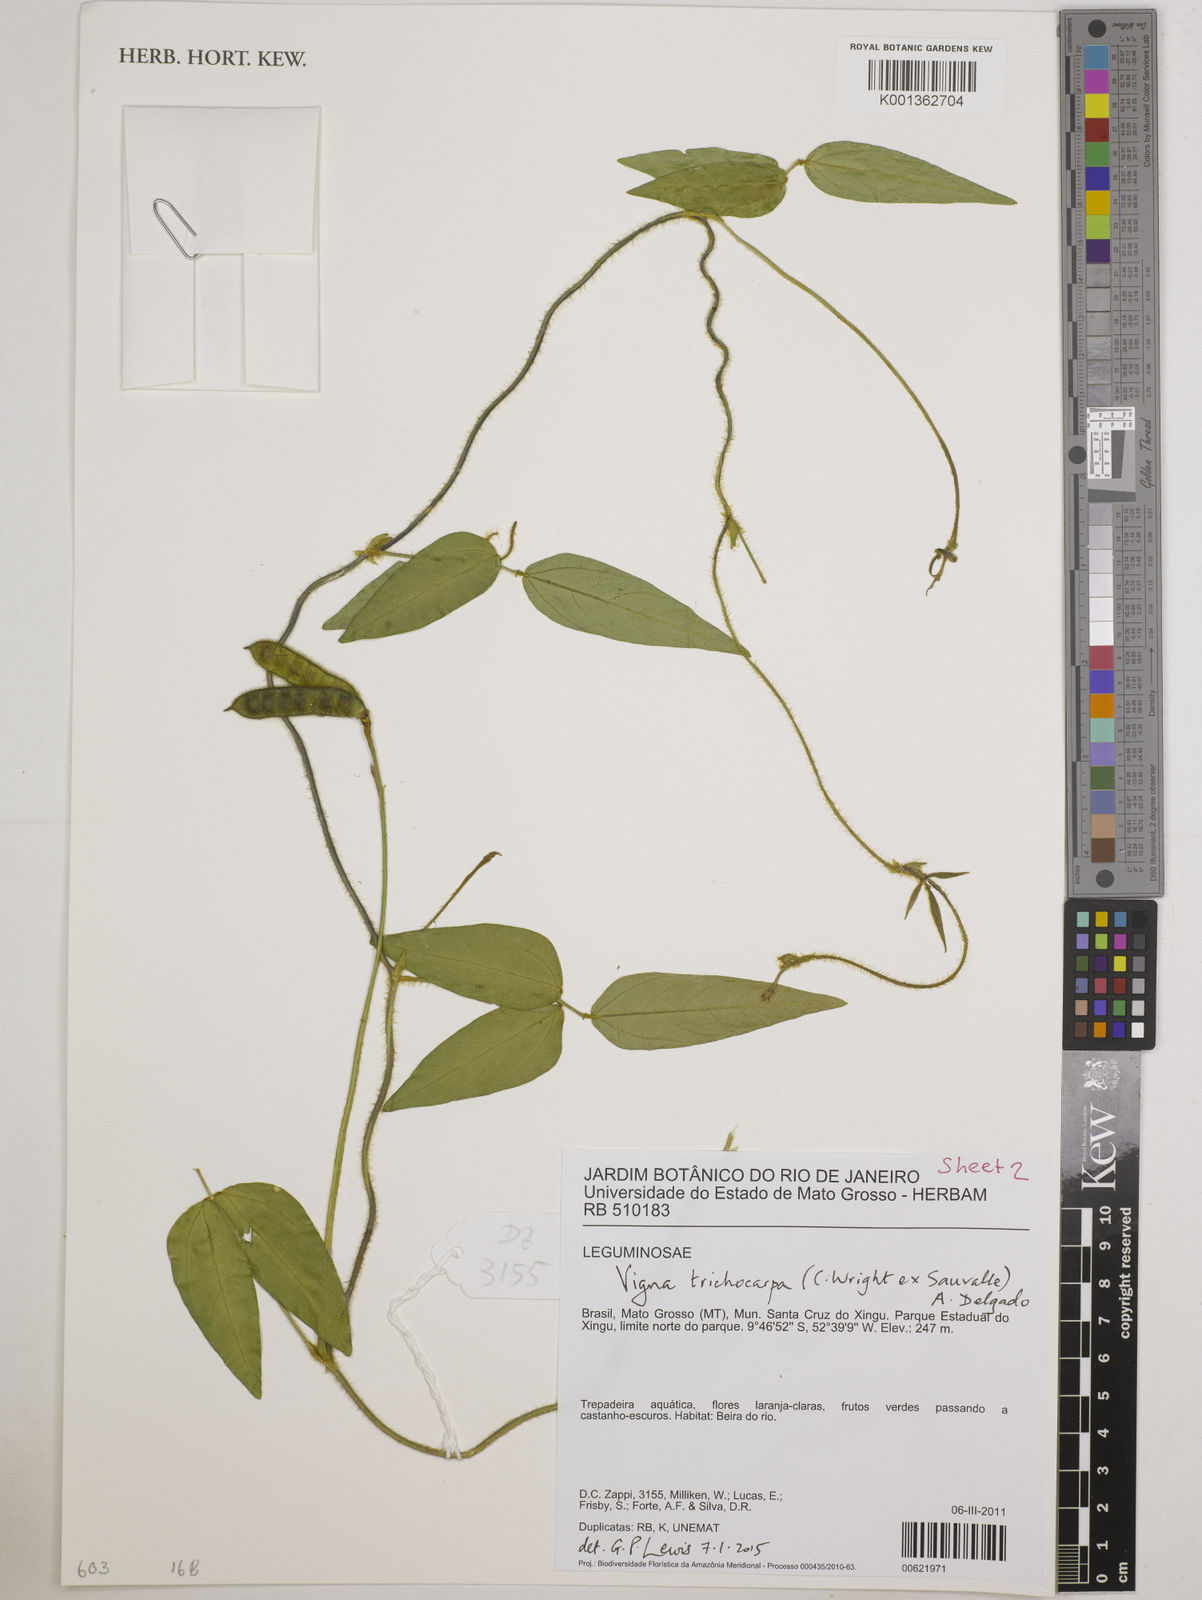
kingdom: Plantae
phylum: Tracheophyta
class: Magnoliopsida
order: Fabales
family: Fabaceae
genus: Vigna
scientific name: Vigna trichocarpa
